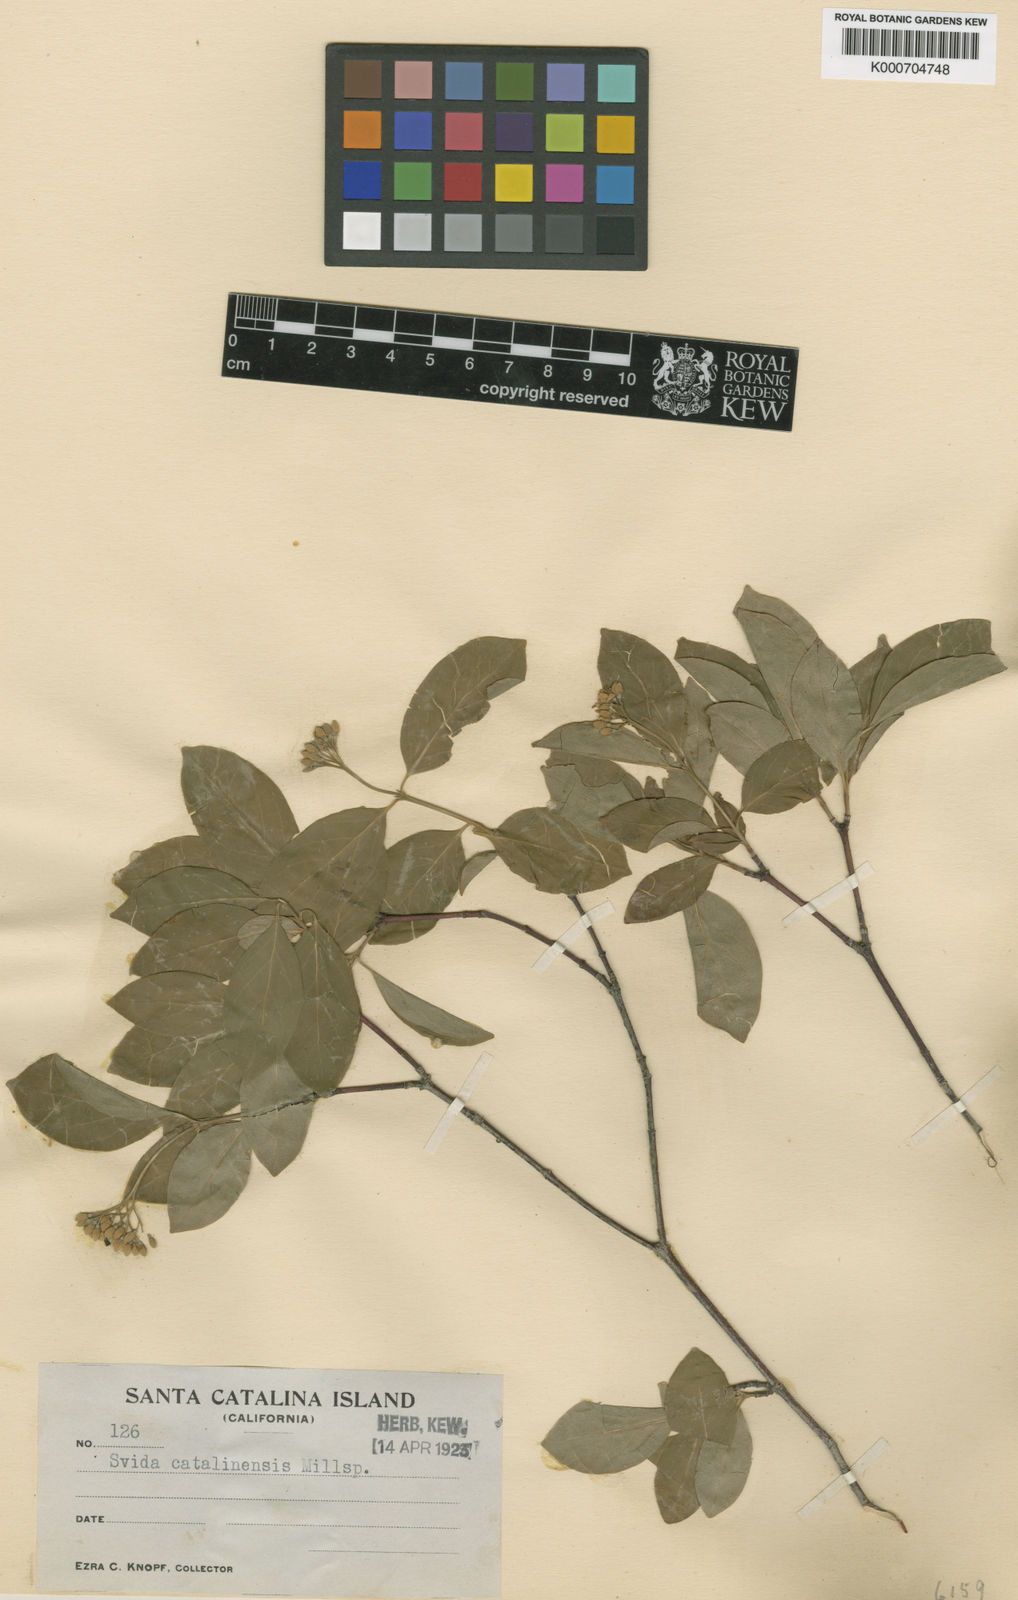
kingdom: Plantae
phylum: Tracheophyta
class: Magnoliopsida
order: Cornales
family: Cornaceae
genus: Cornus
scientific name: Cornus
